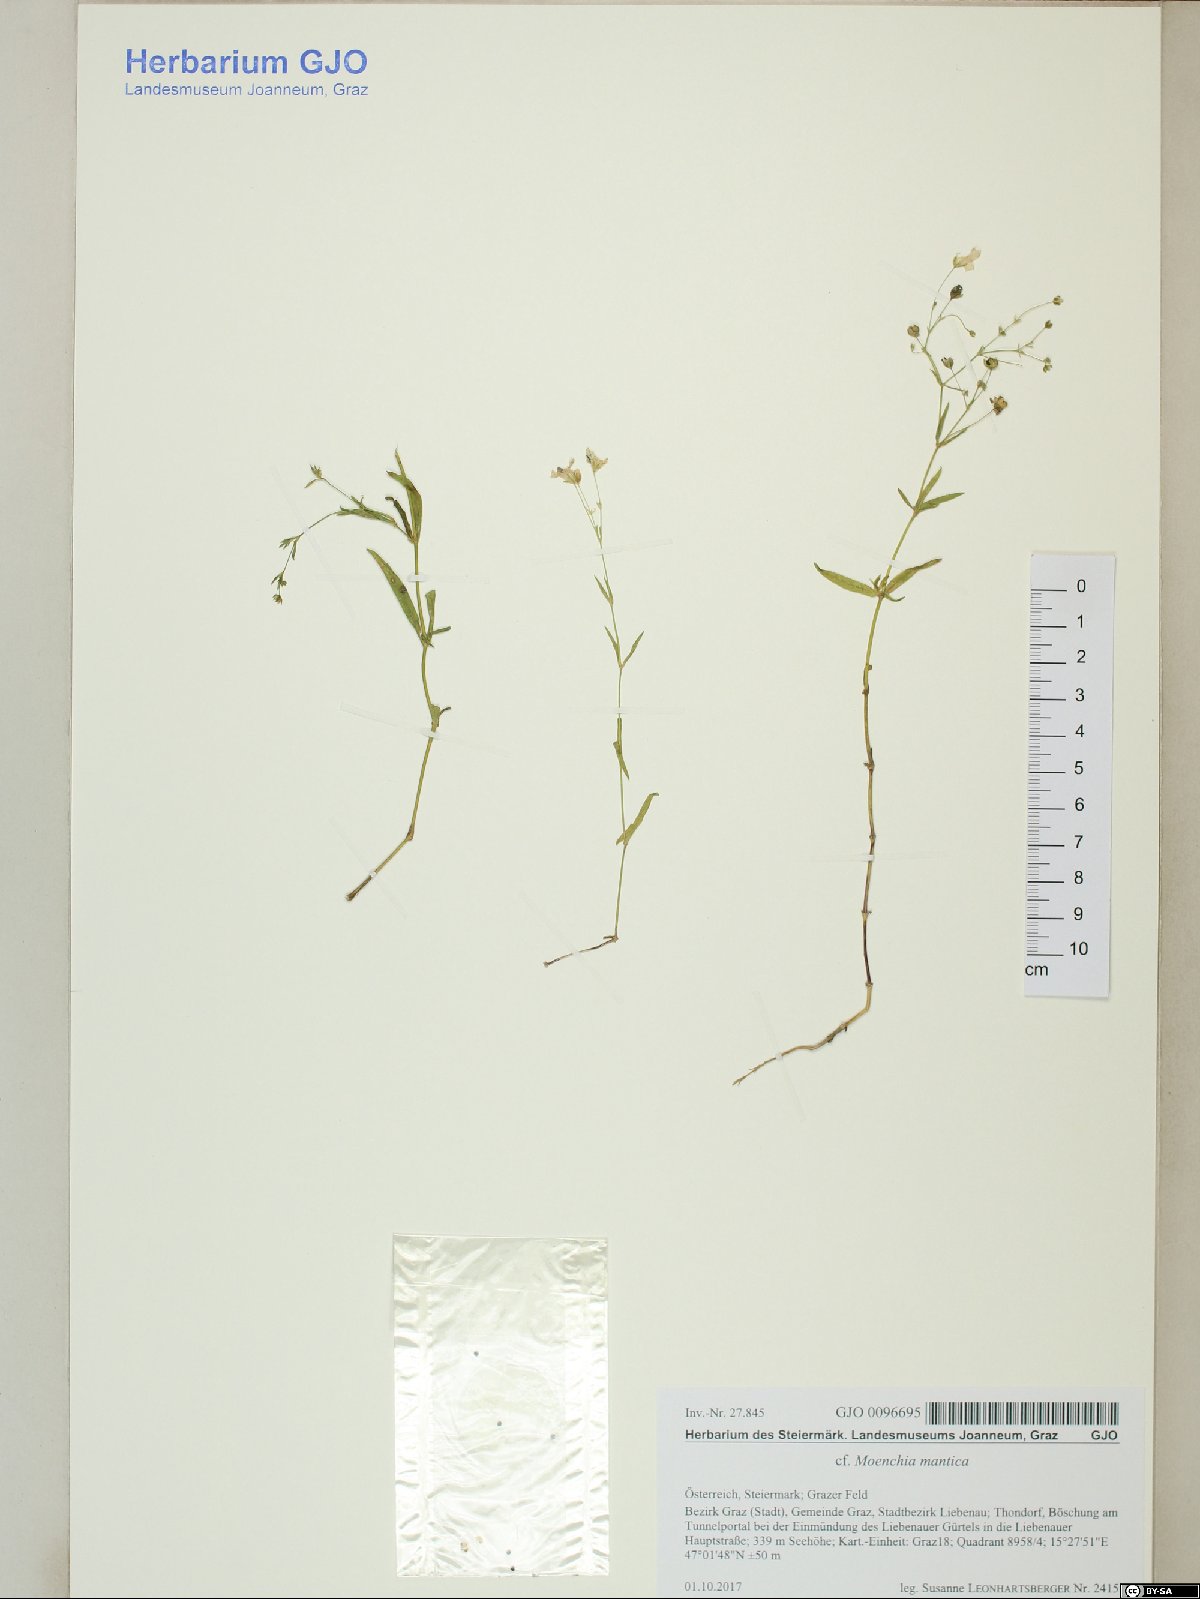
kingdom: Plantae
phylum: Tracheophyta
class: Magnoliopsida
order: Caryophyllales
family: Caryophyllaceae
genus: Moenchia
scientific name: Moenchia mantica
